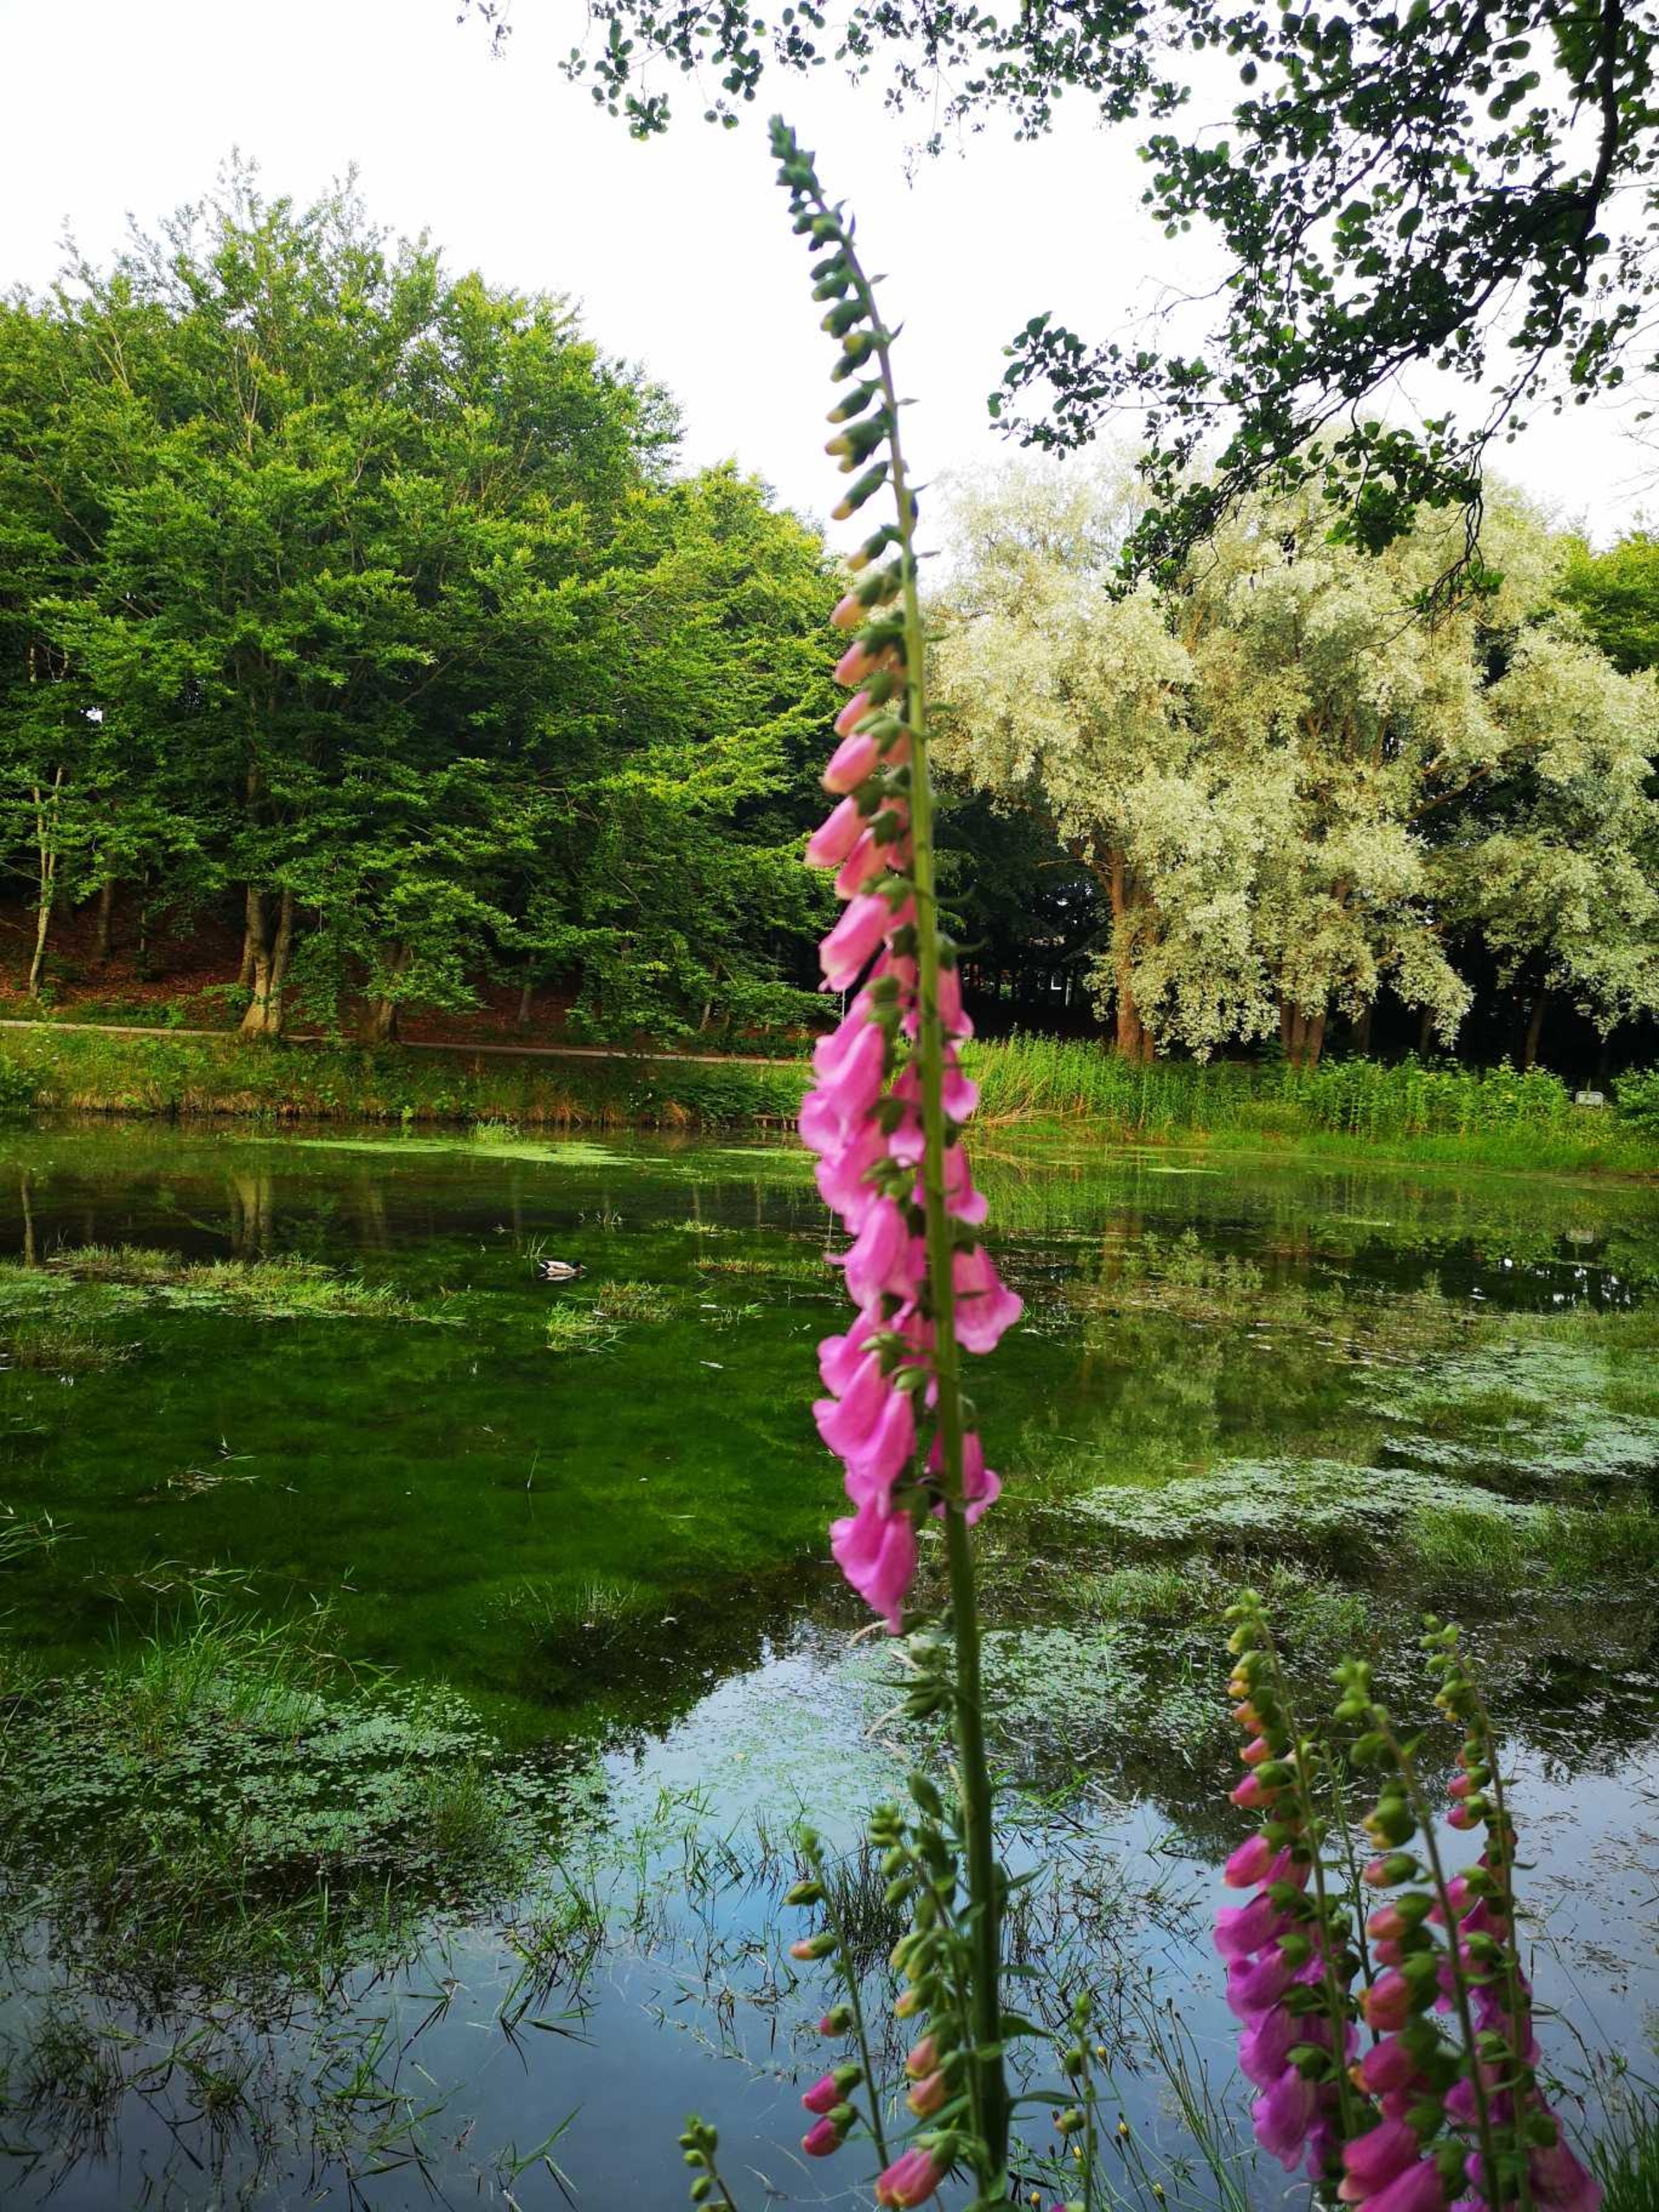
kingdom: Plantae
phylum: Tracheophyta
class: Magnoliopsida
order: Lamiales
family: Plantaginaceae
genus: Digitalis
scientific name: Digitalis purpurea
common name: Almindelig fingerbøl
